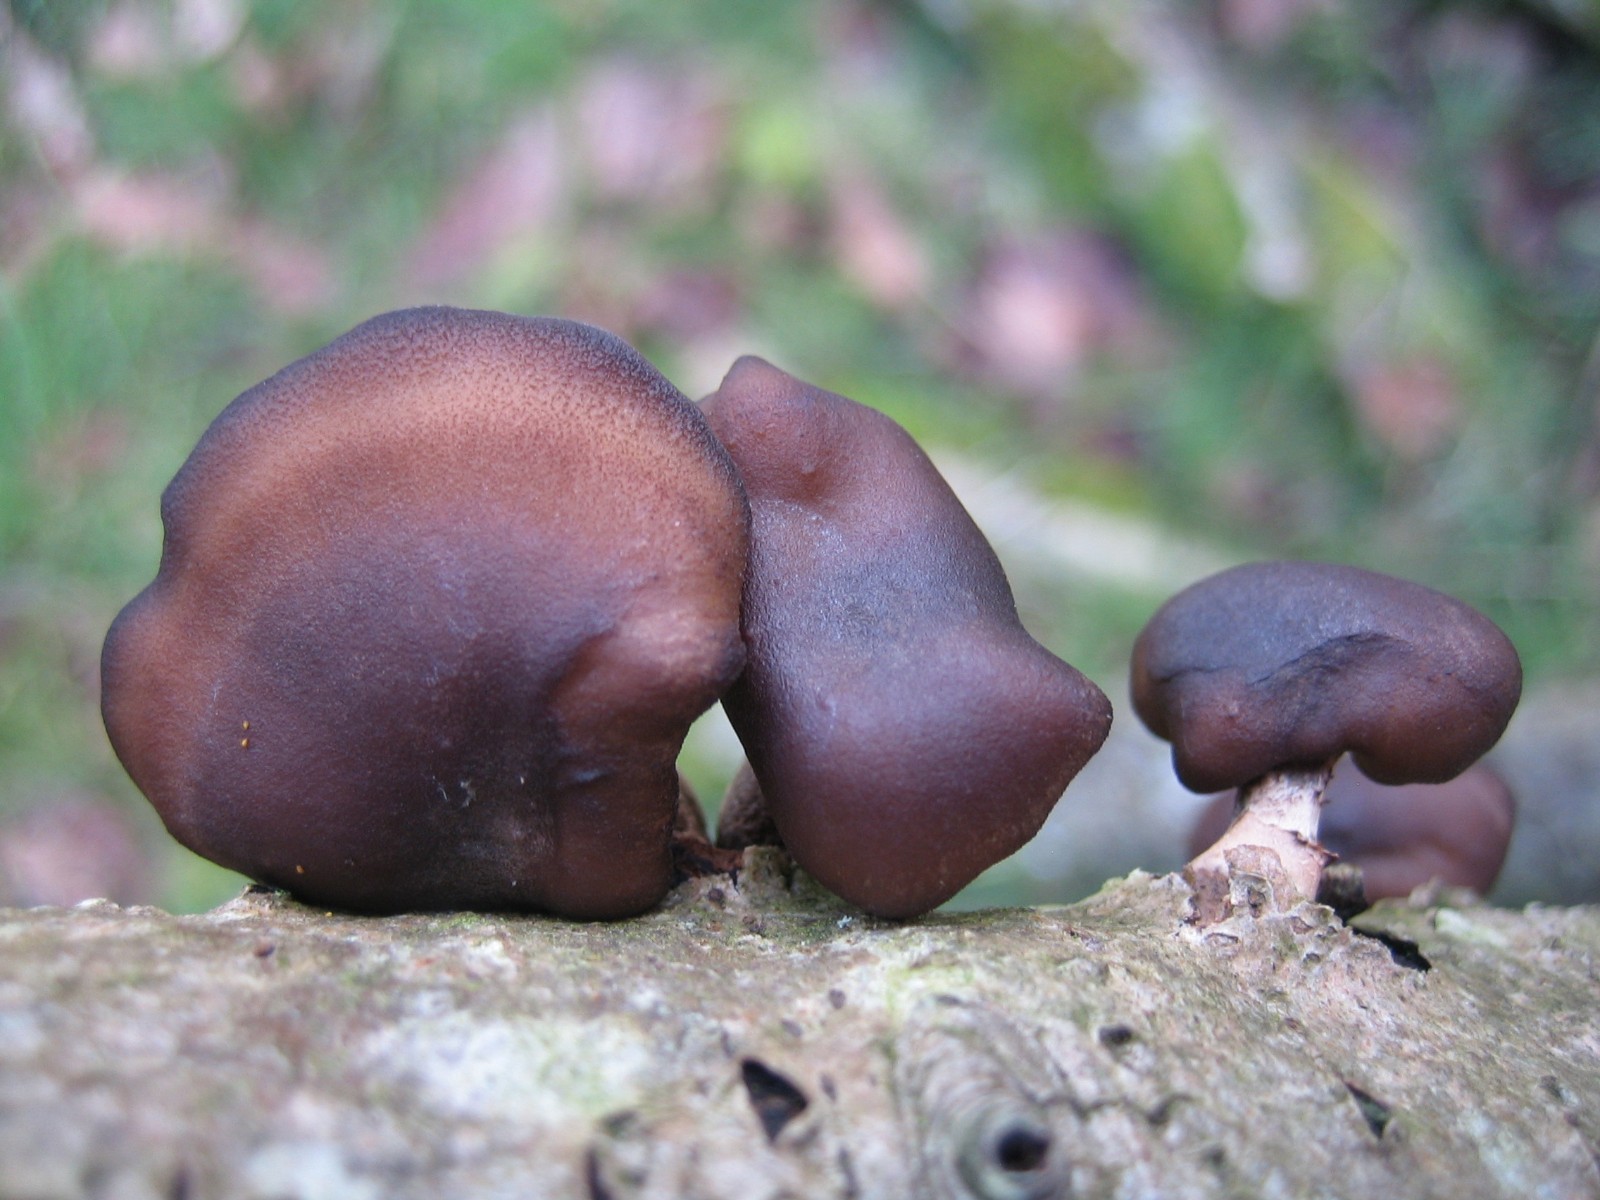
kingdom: Fungi
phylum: Basidiomycota
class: Agaricomycetes
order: Polyporales
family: Polyporaceae
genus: Lentinus
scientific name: Lentinus brumalis
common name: vinter-stilkporesvamp
